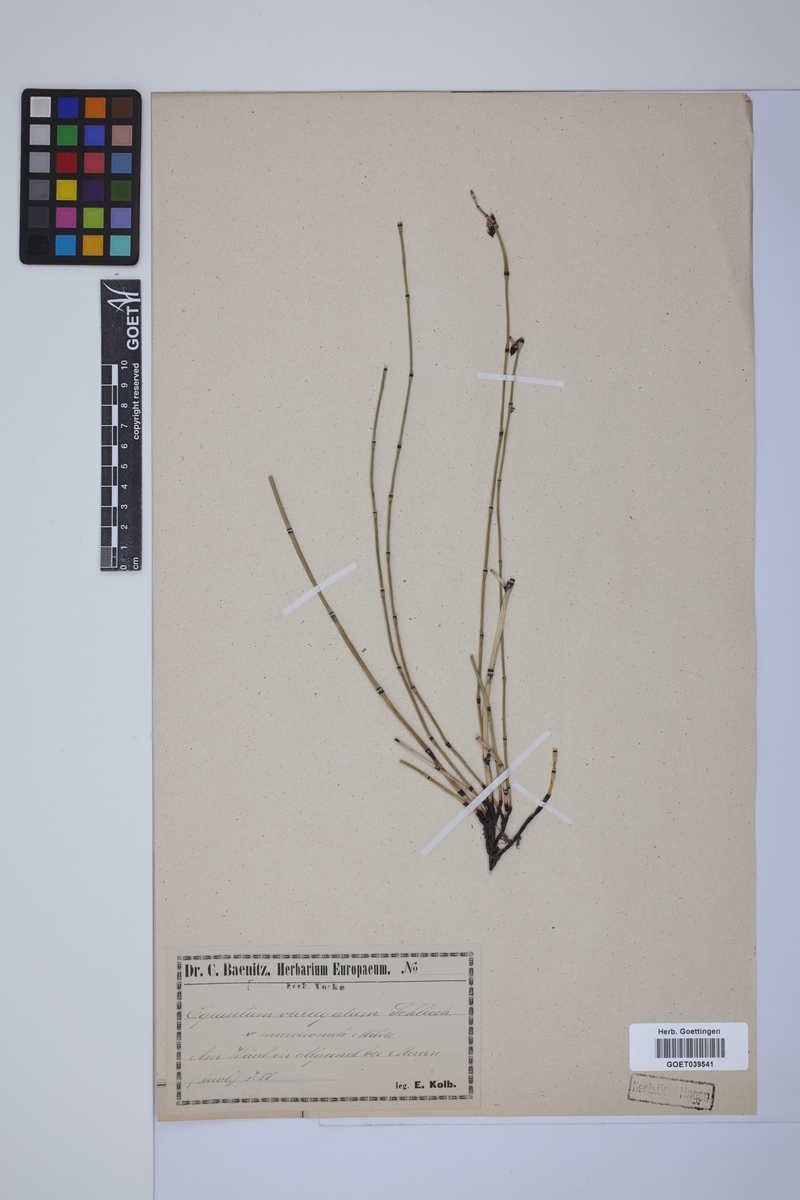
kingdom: Plantae
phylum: Tracheophyta
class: Polypodiopsida
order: Equisetales
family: Equisetaceae
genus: Equisetum
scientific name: Equisetum variegatum
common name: Variegated horsetail
